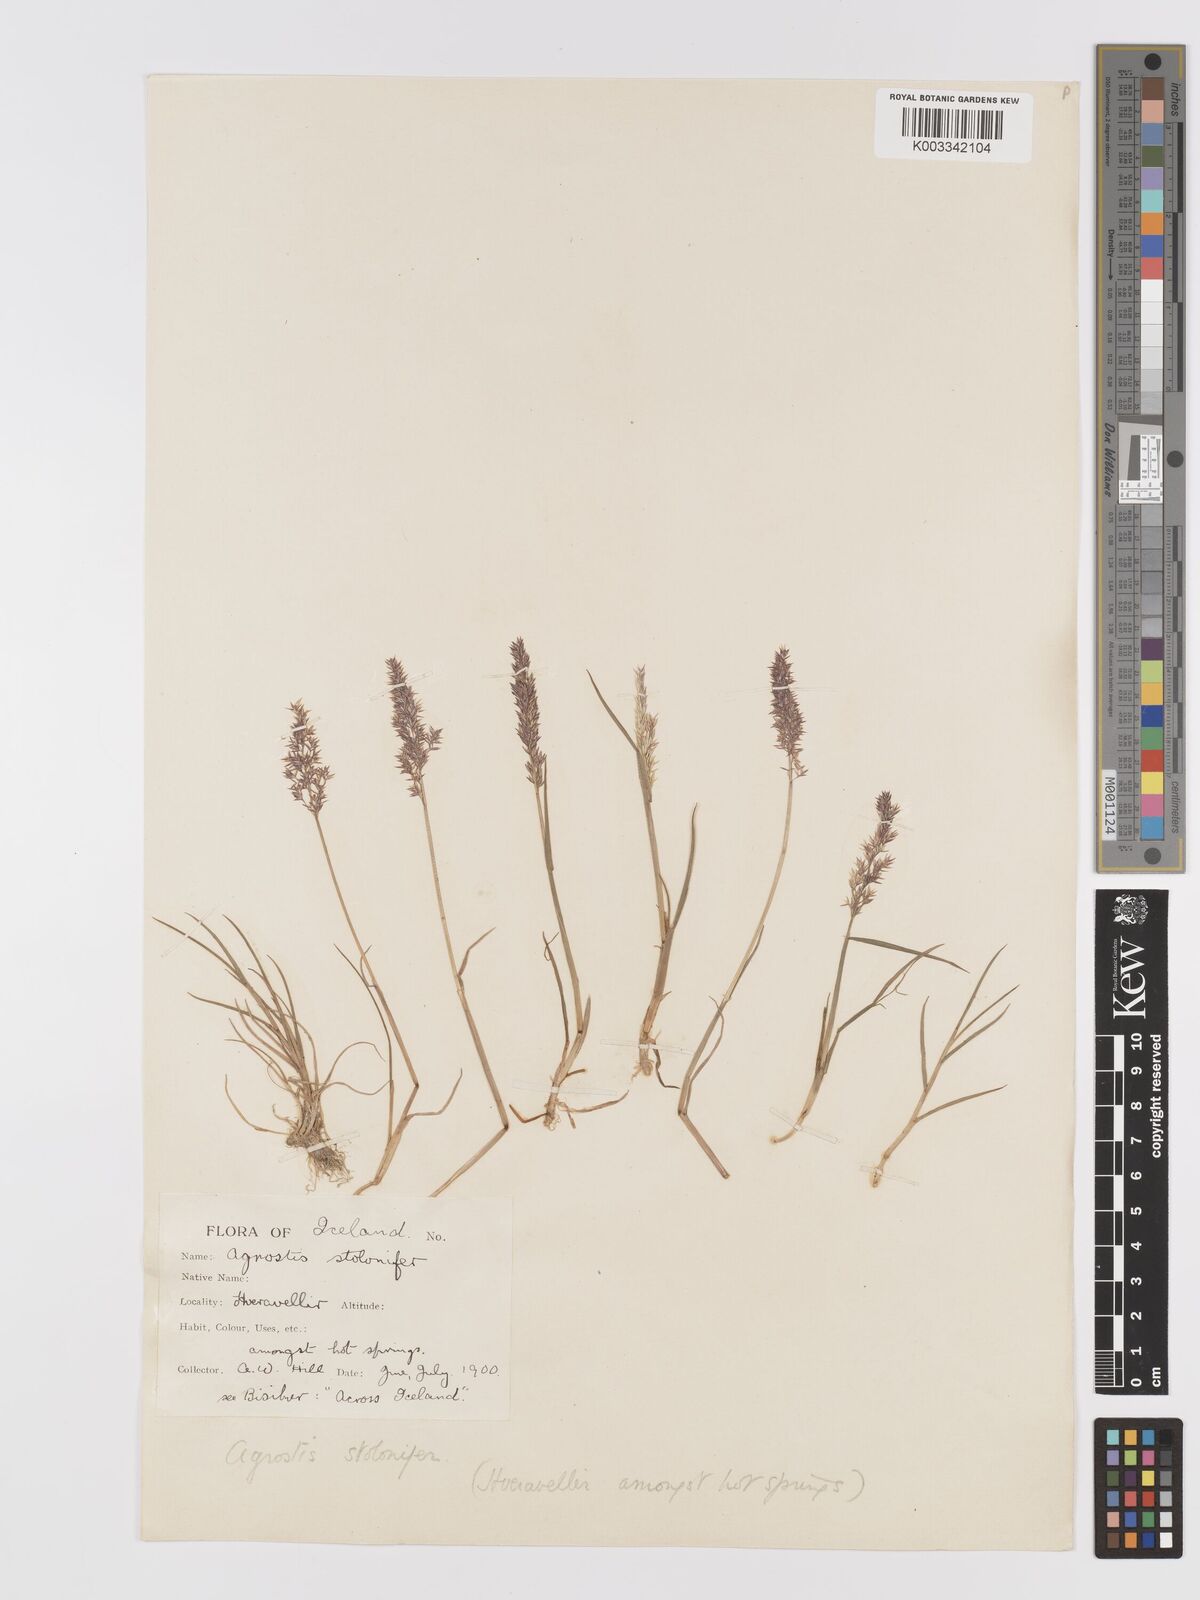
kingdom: Plantae
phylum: Tracheophyta
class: Liliopsida
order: Poales
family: Poaceae
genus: Agrostis
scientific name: Agrostis stolonifera
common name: Creeping bentgrass
